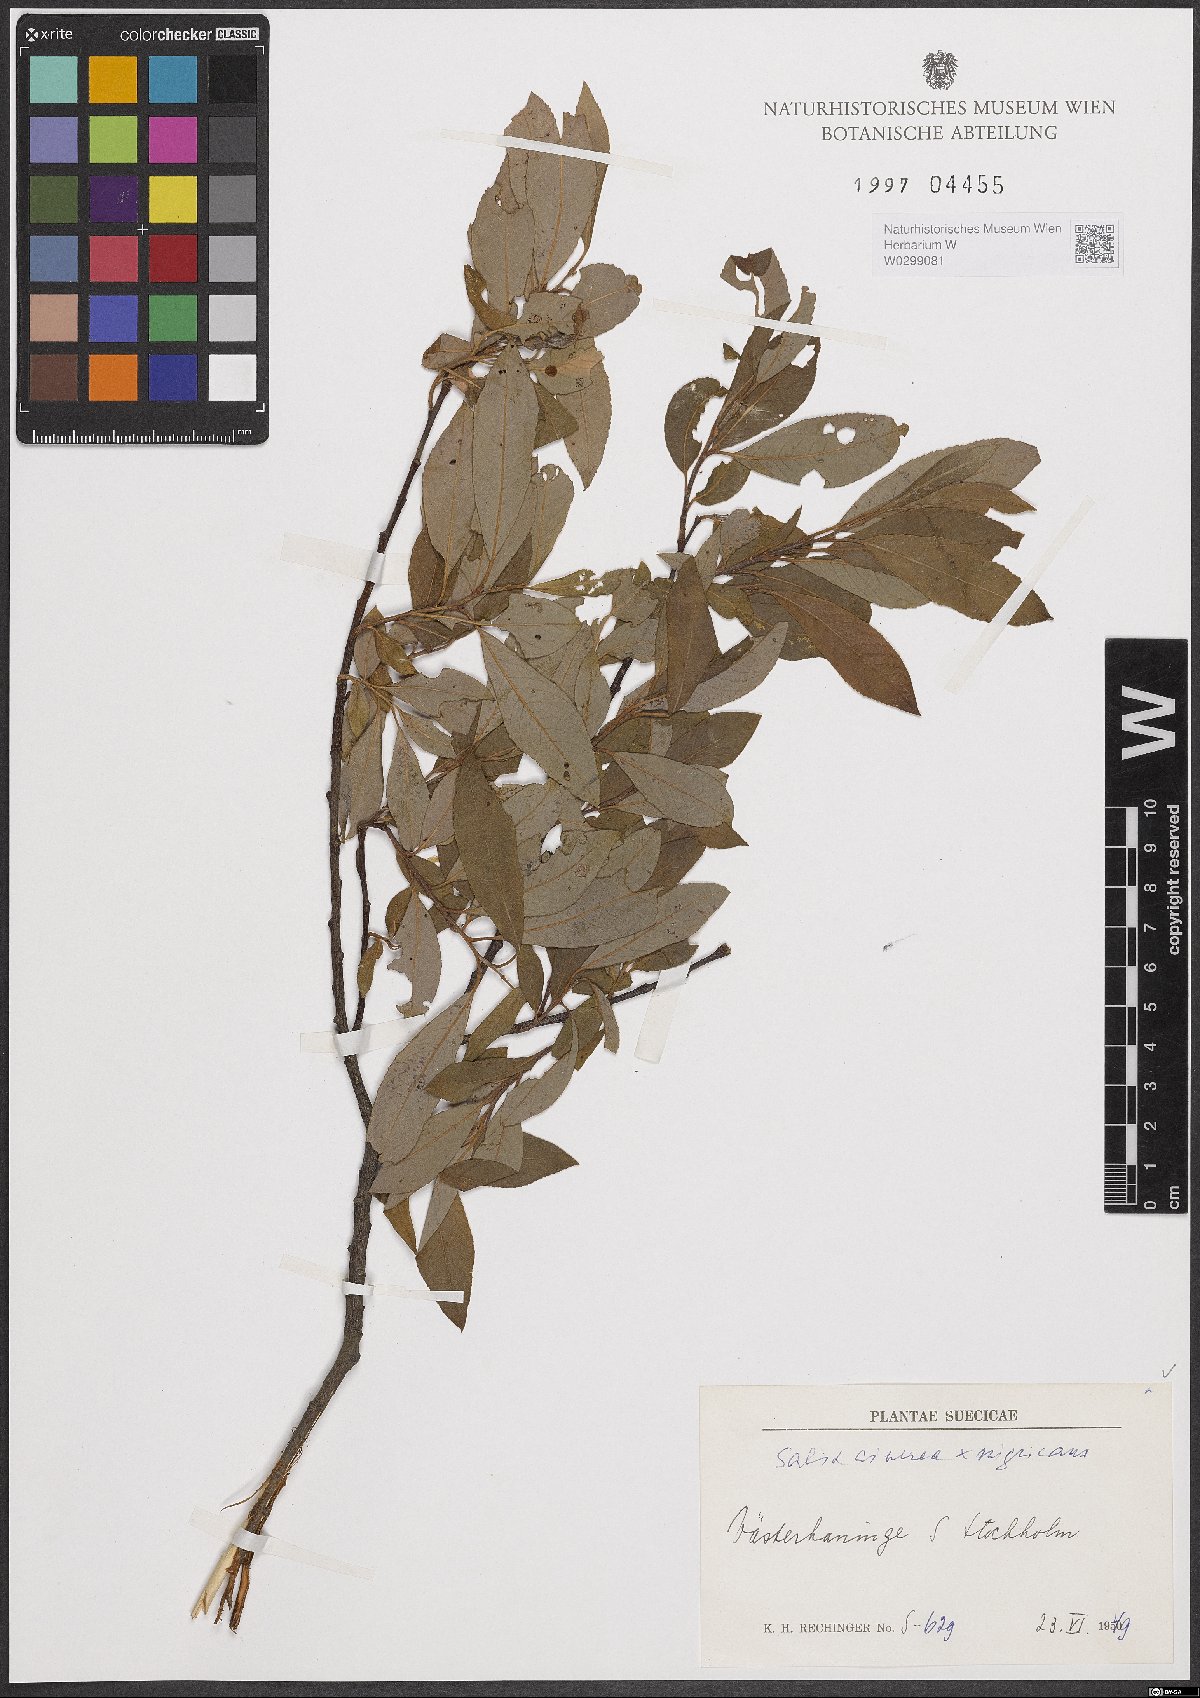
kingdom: Plantae
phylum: Tracheophyta
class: Magnoliopsida
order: Malpighiales
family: Salicaceae
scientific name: Salicaceae
